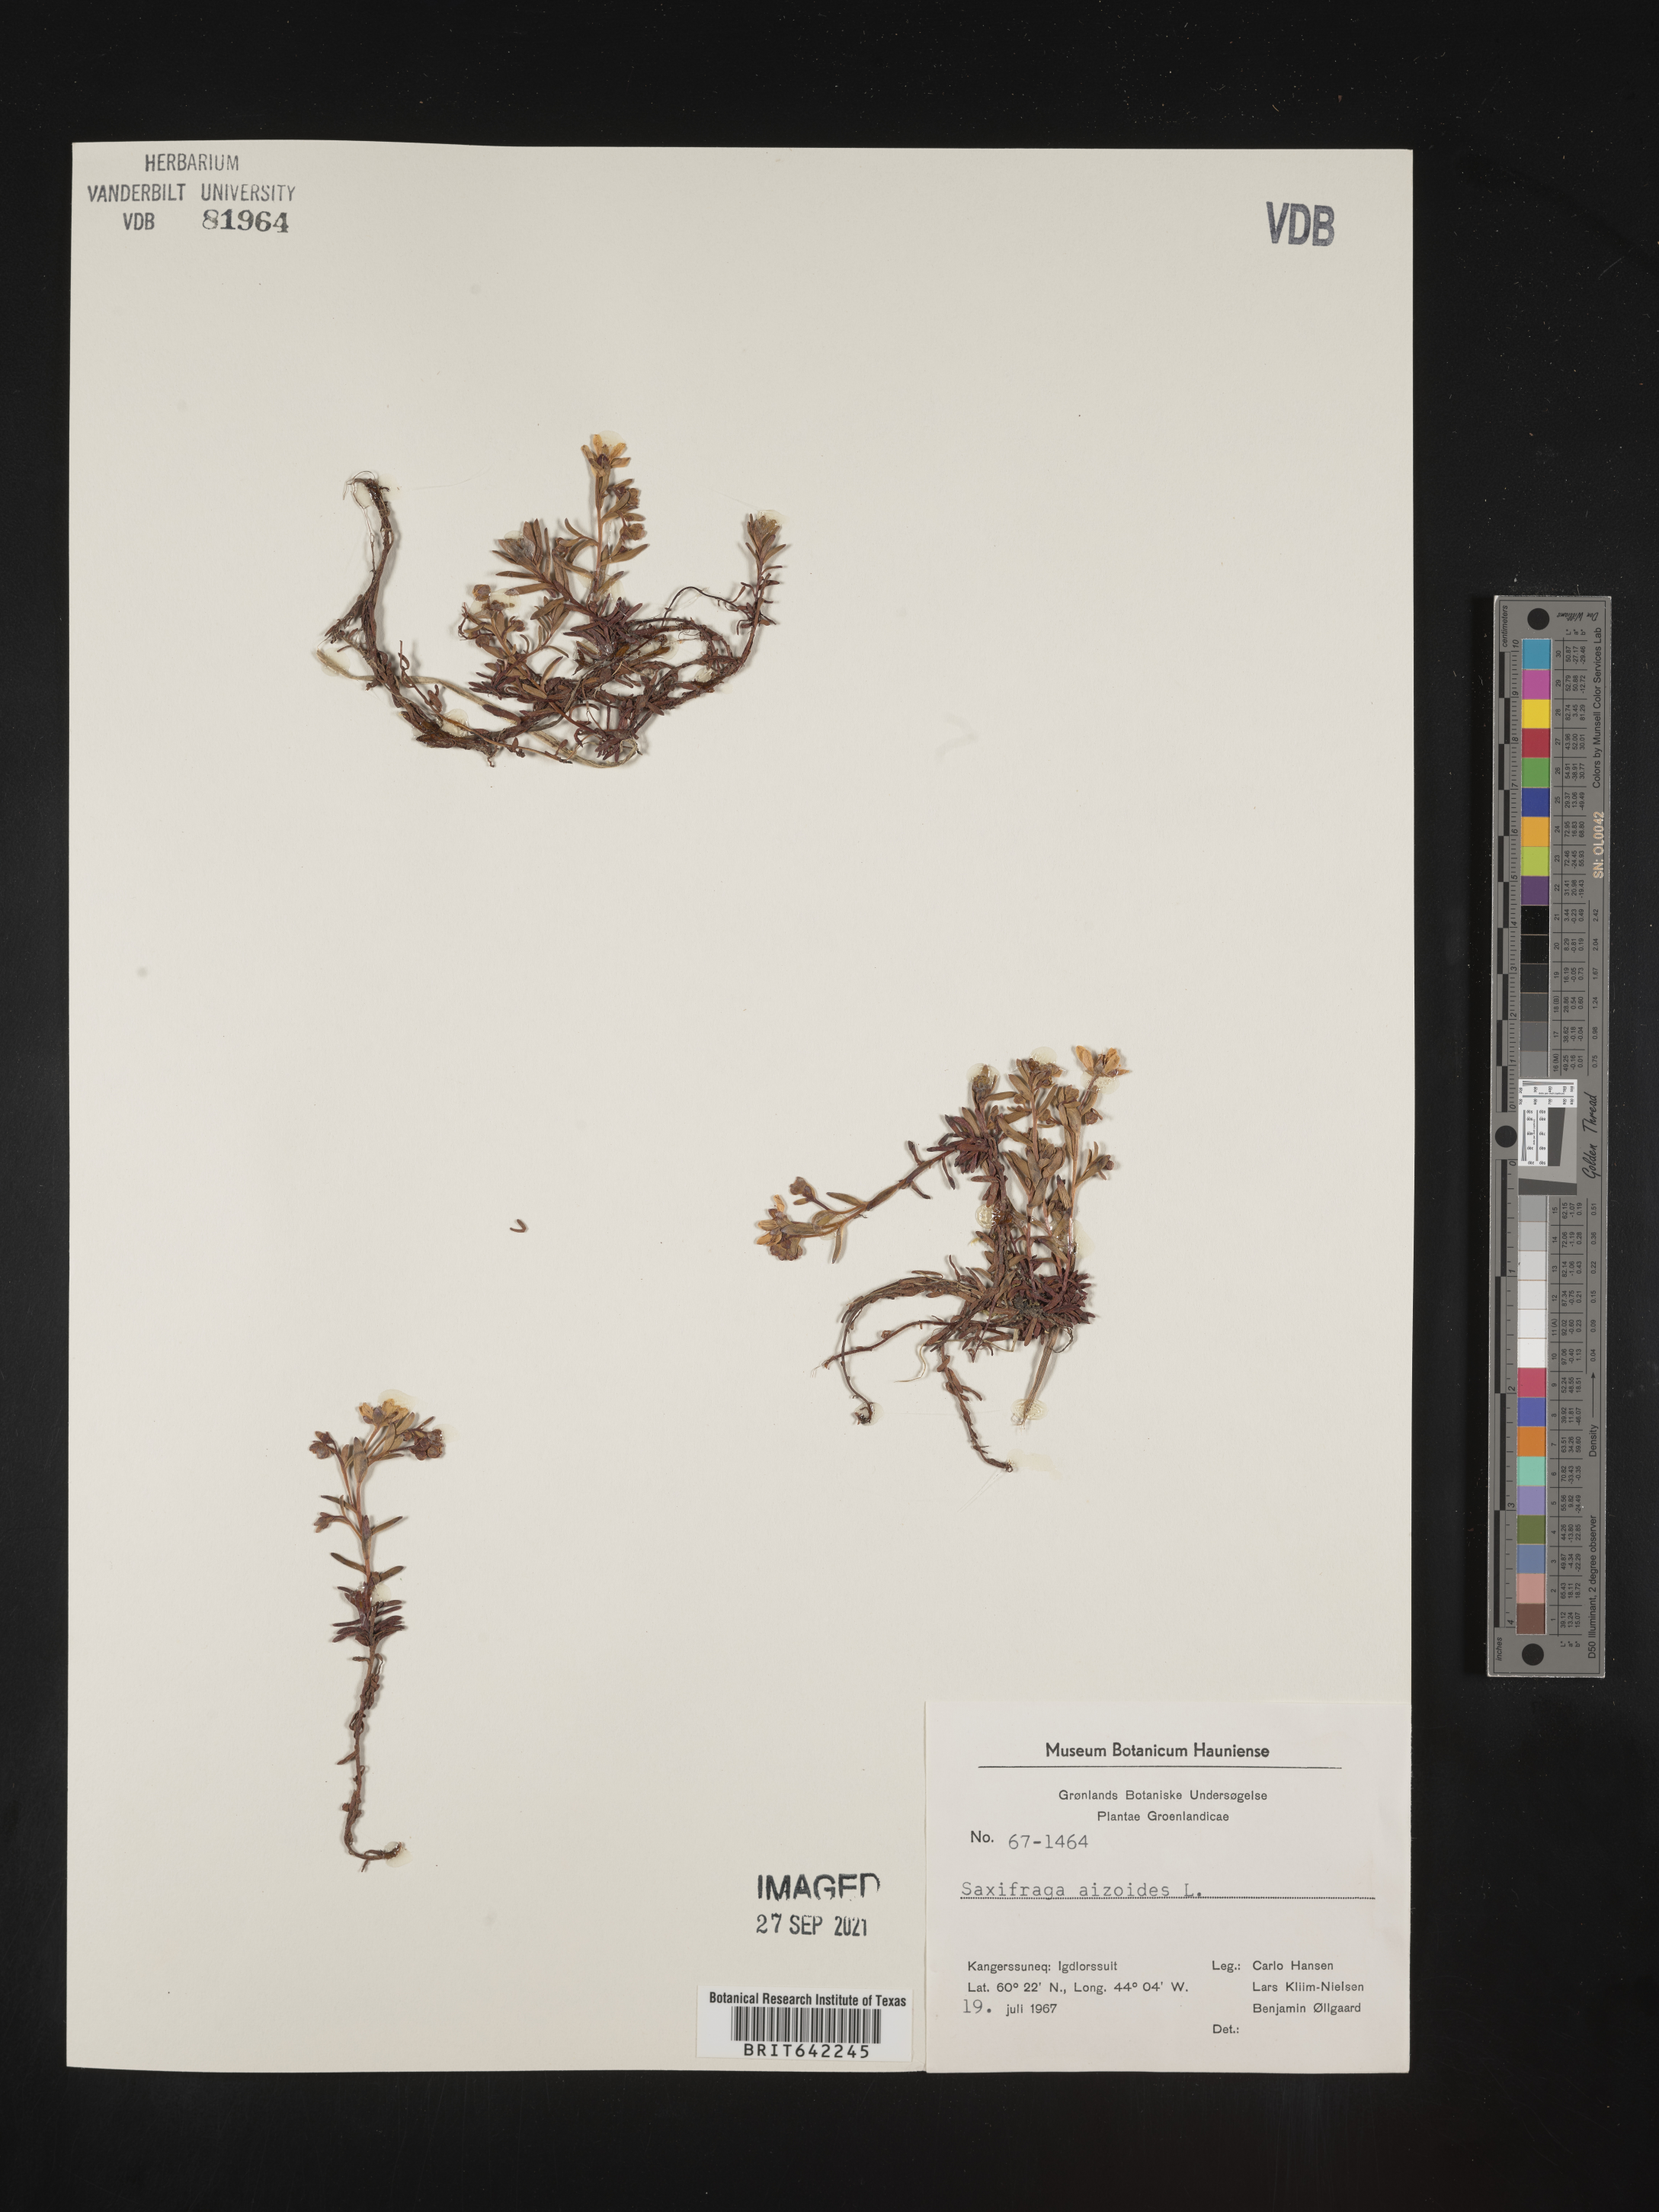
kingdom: Plantae
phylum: Tracheophyta
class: Magnoliopsida
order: Saxifragales
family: Saxifragaceae
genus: Saxifraga
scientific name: Saxifraga
